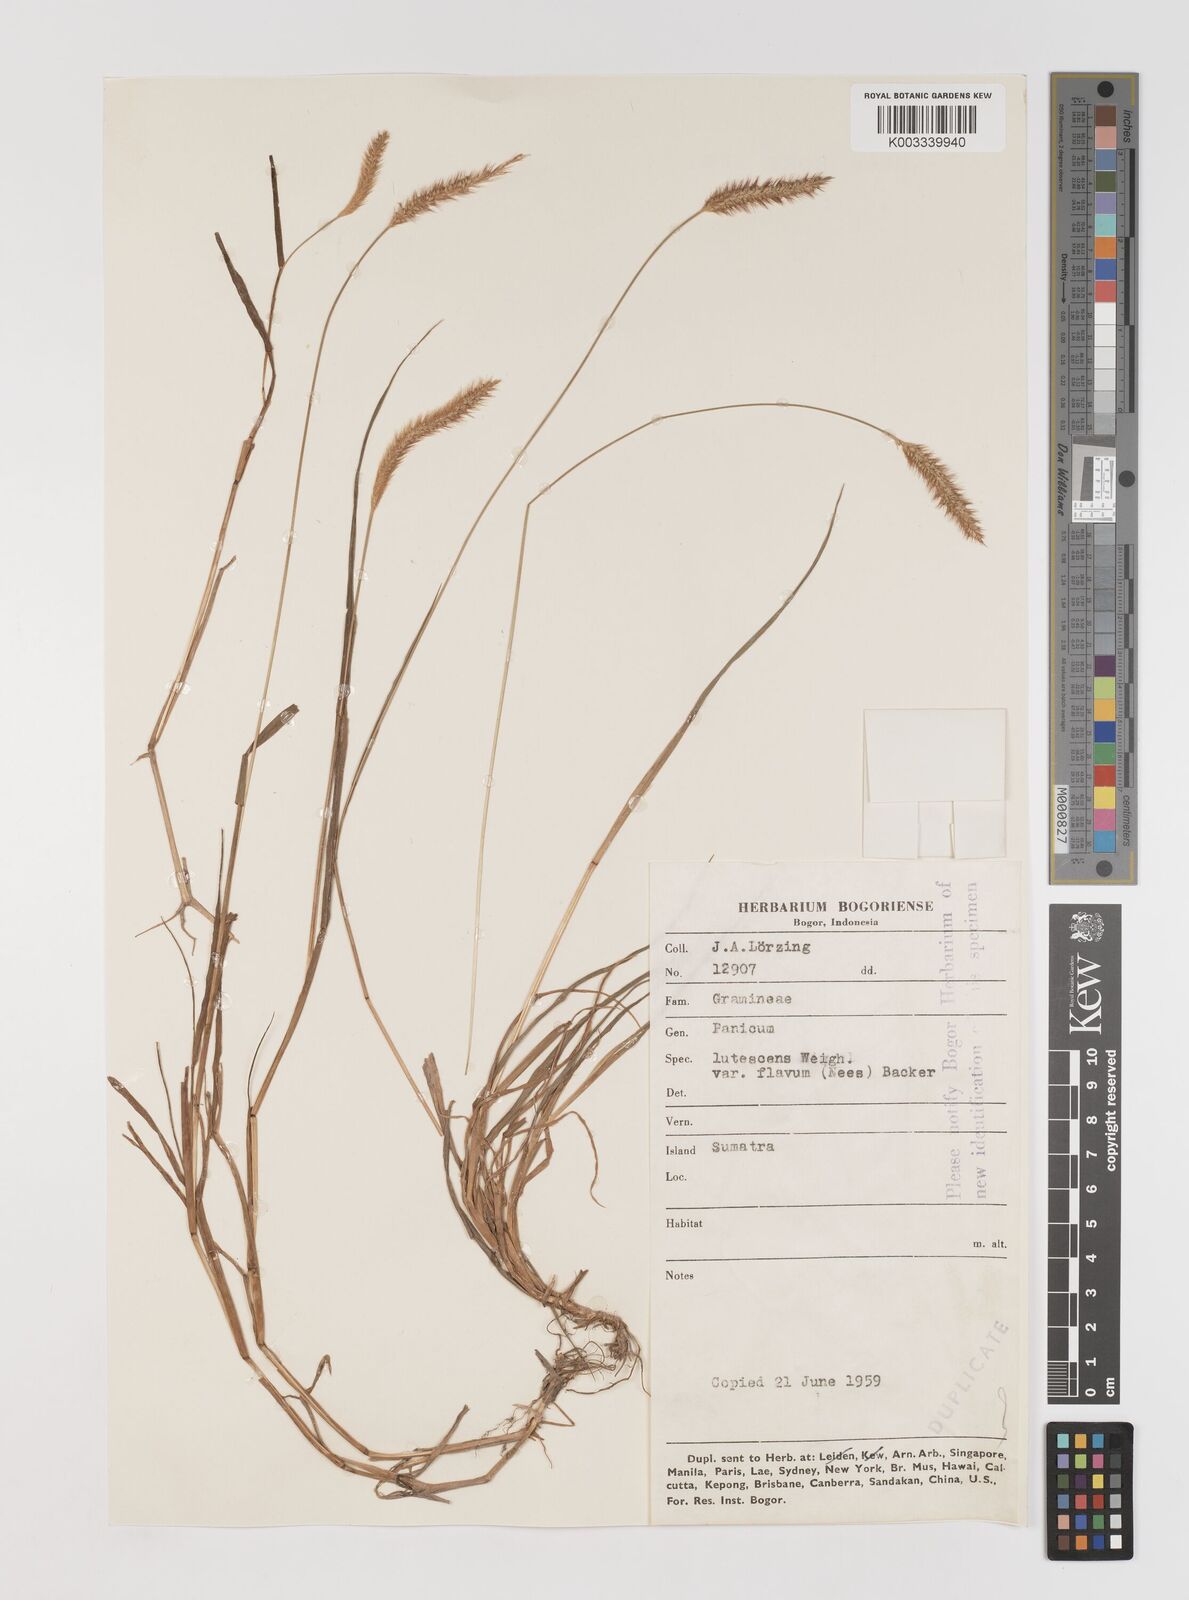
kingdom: Plantae
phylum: Tracheophyta
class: Liliopsida
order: Poales
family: Poaceae
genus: Setaria
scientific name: Setaria parviflora
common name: Knotroot bristle-grass
